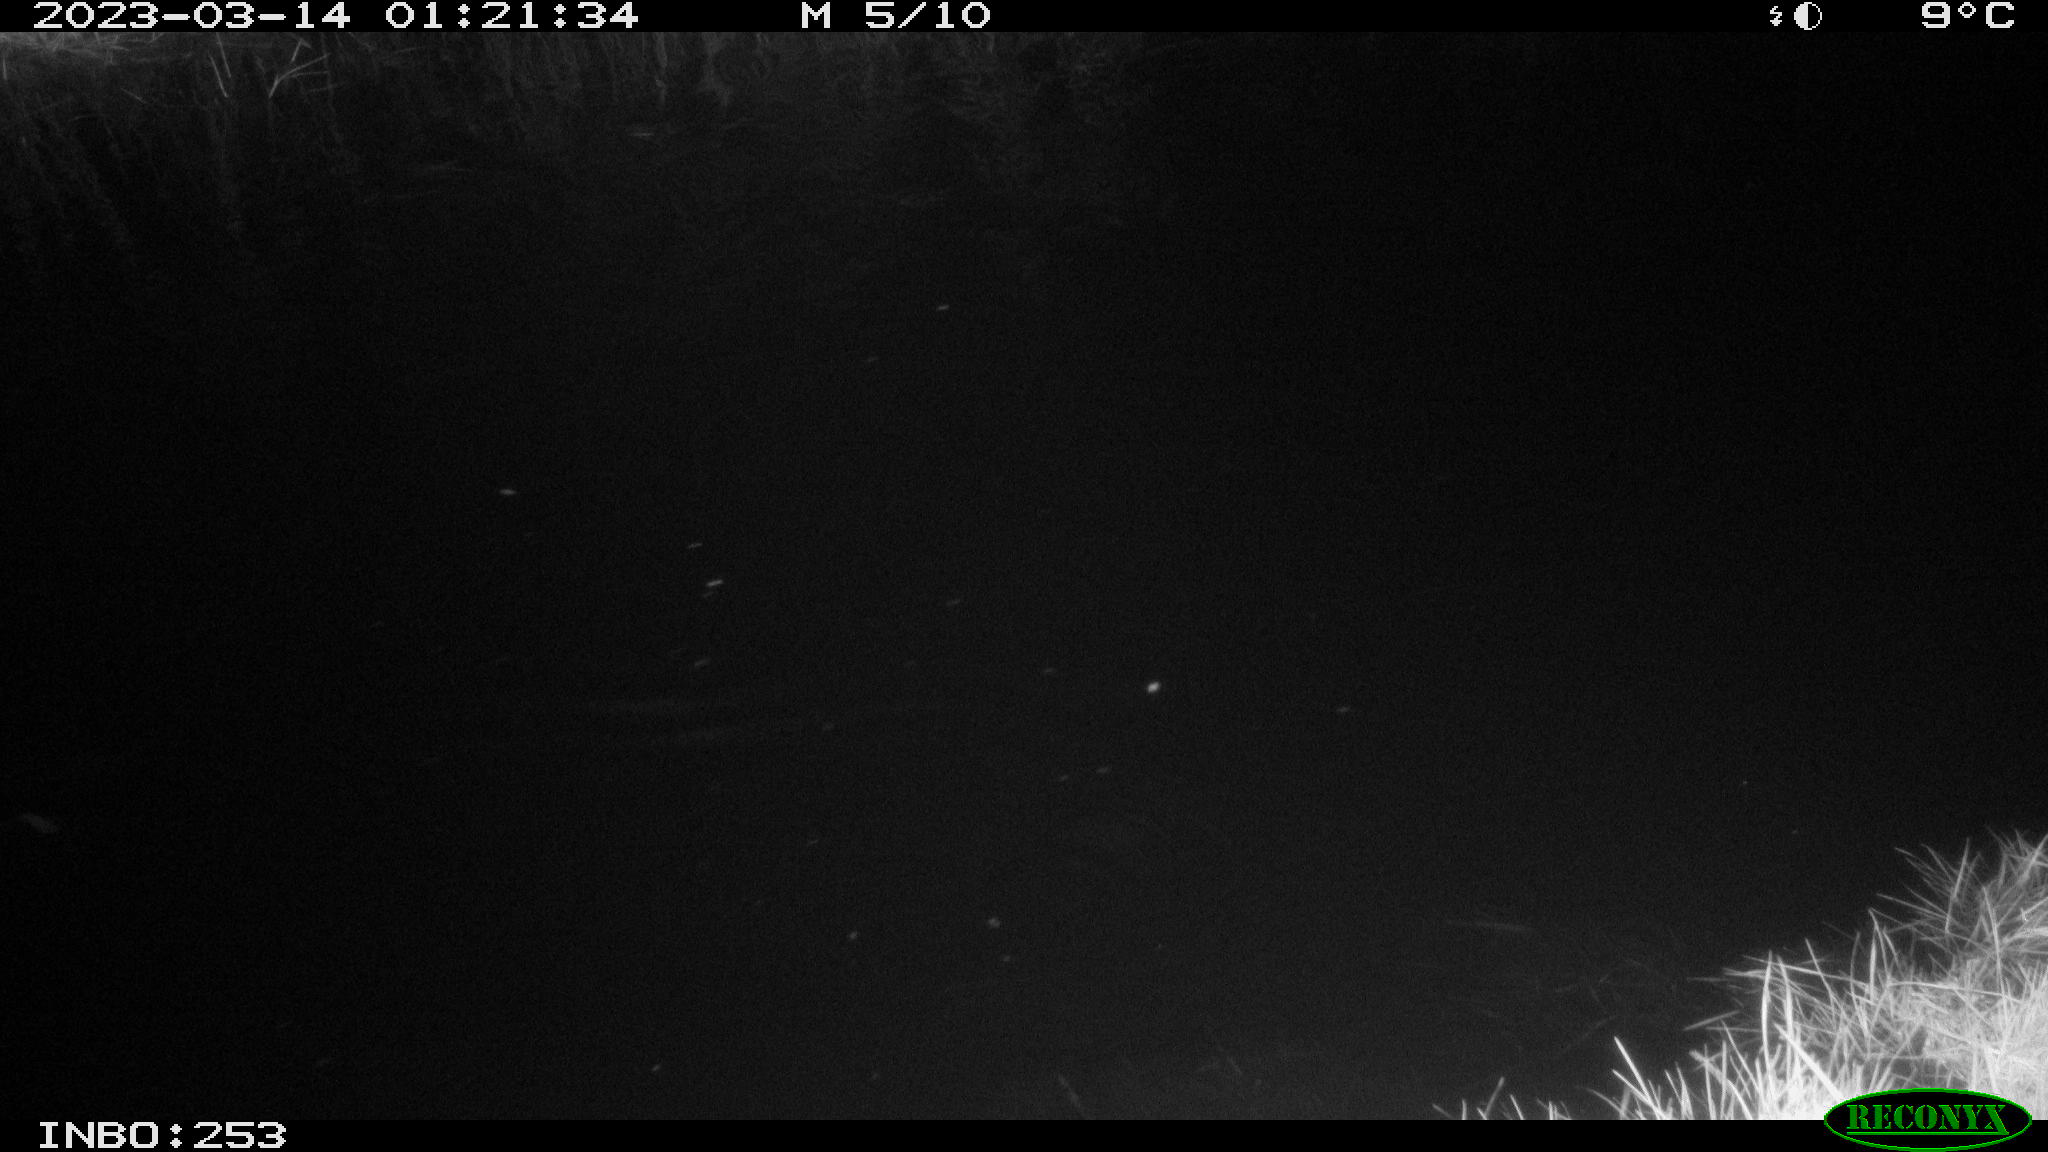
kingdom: Animalia
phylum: Chordata
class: Mammalia
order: Rodentia
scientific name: Rodentia
